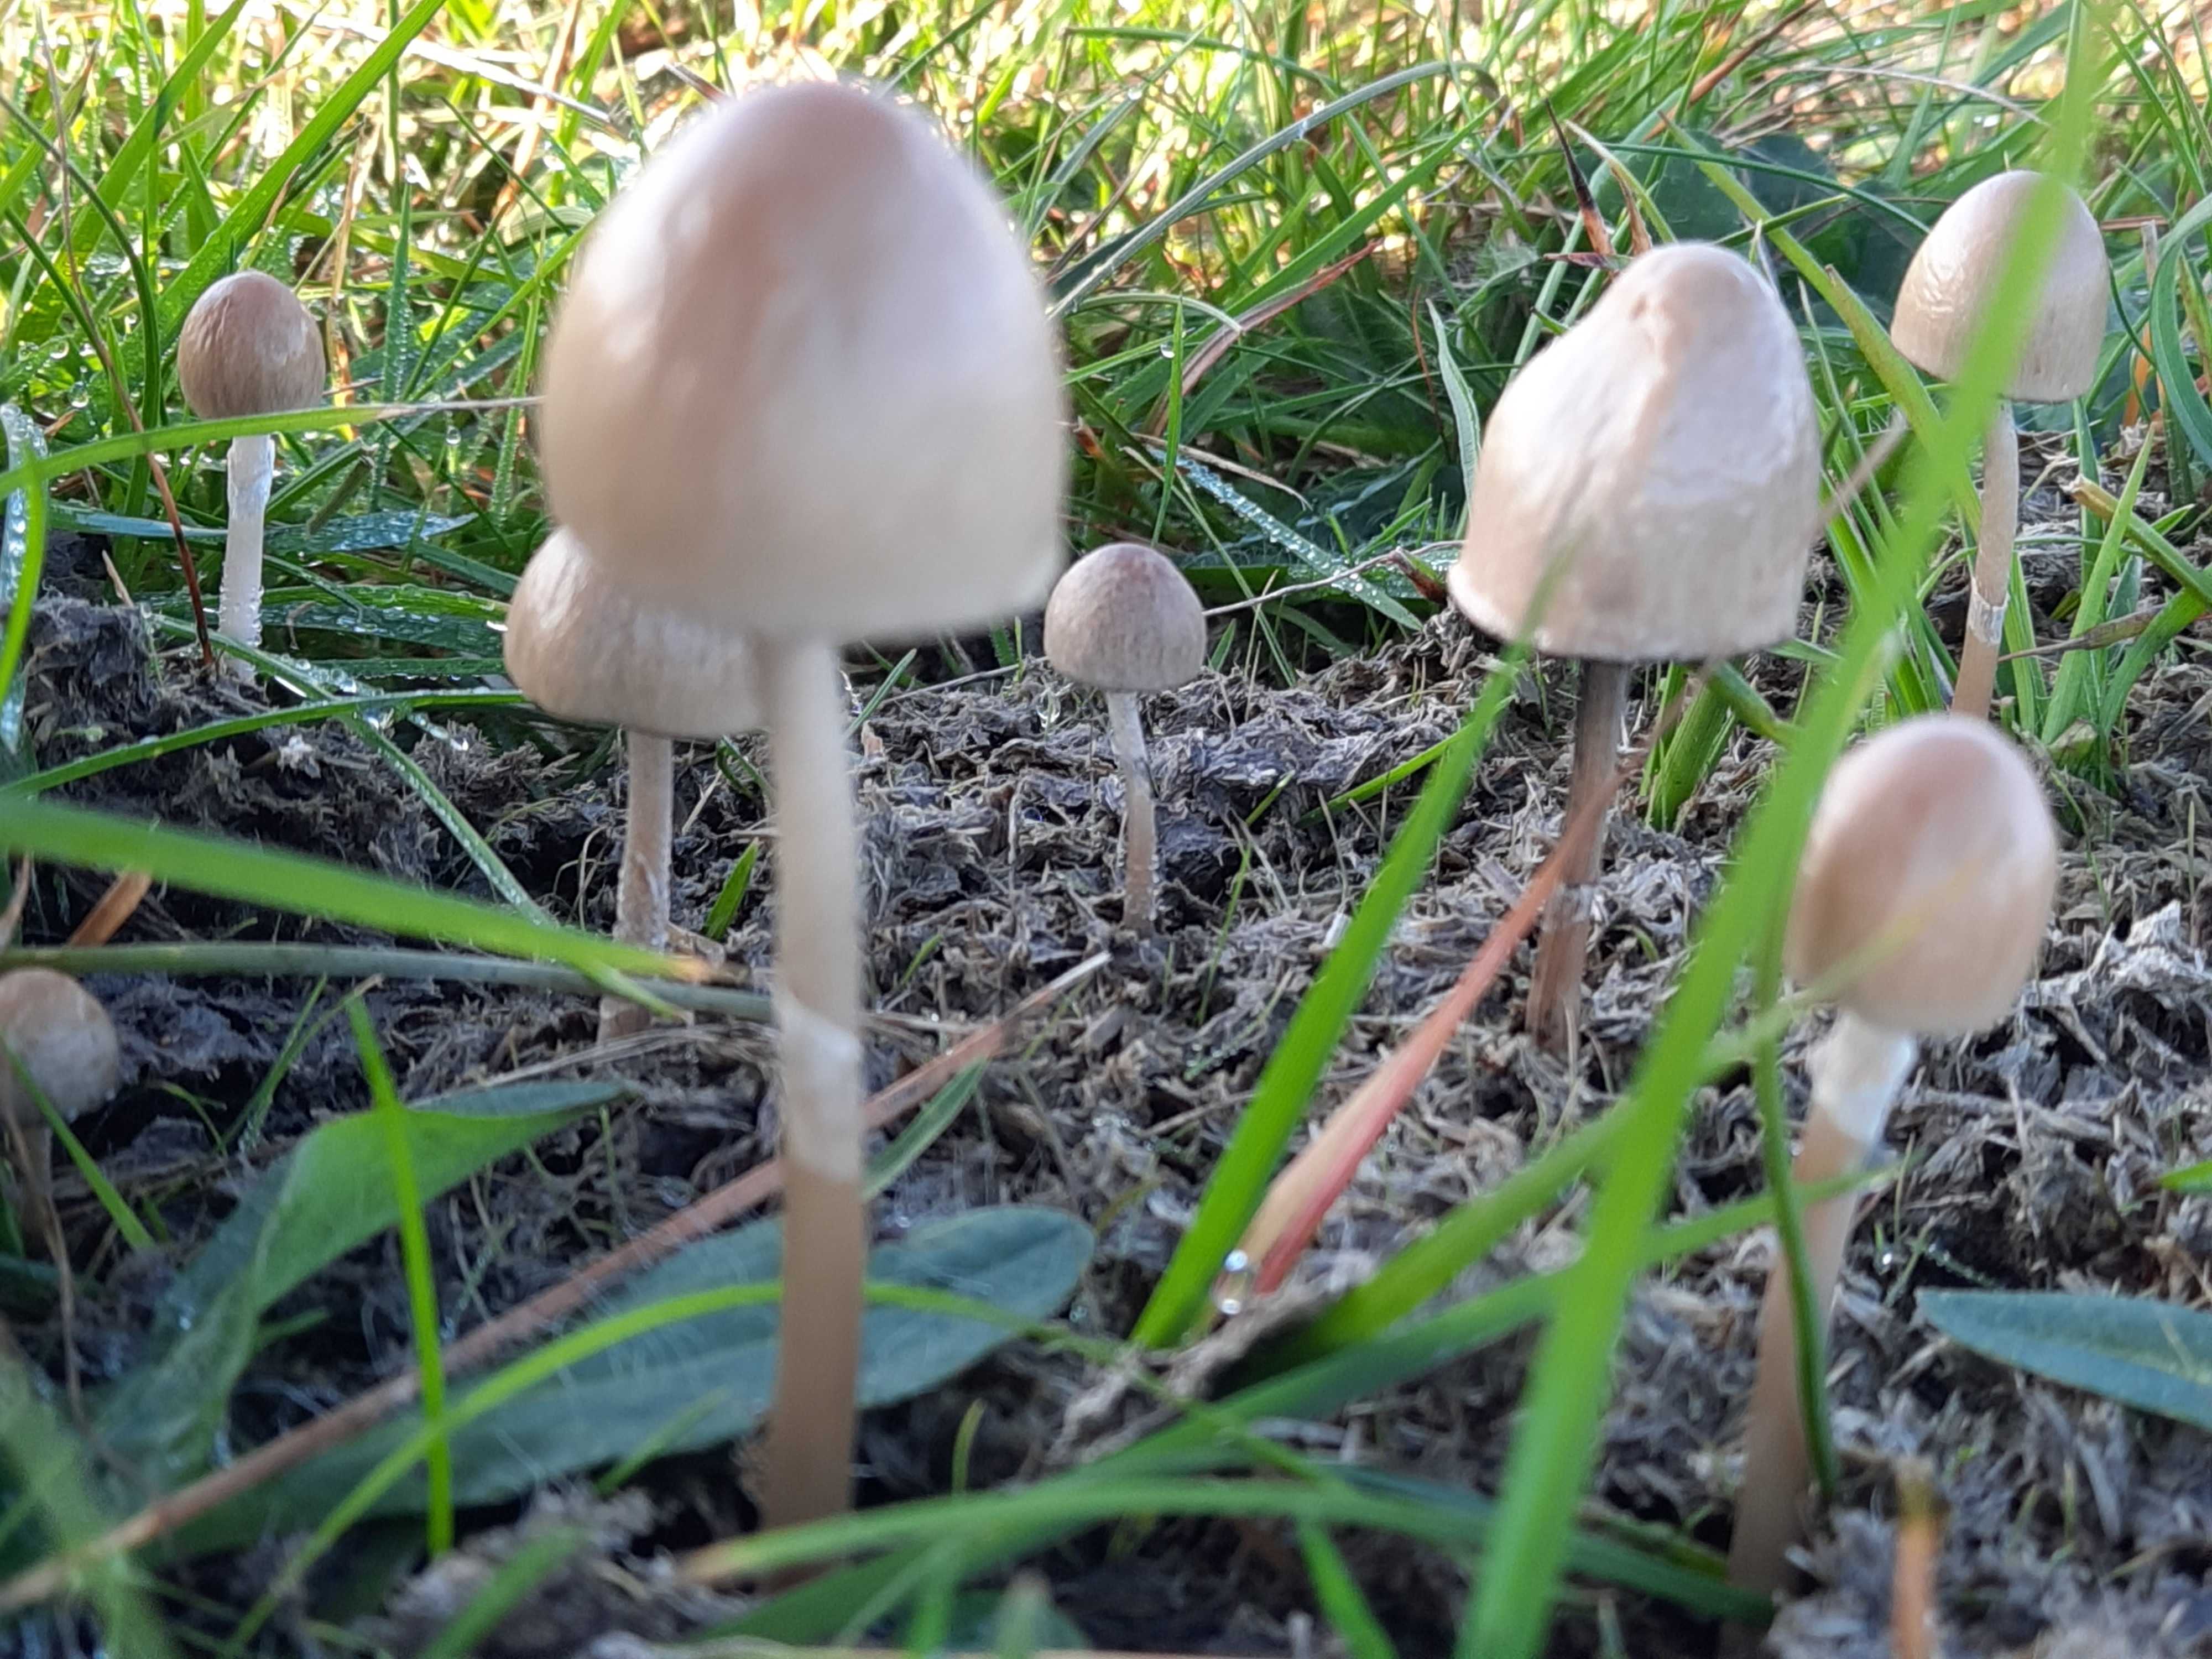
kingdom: Fungi
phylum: Basidiomycota
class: Agaricomycetes
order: Agaricales
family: Bolbitiaceae
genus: Panaeolus
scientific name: Panaeolus semiovatus
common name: ring-glanshat
